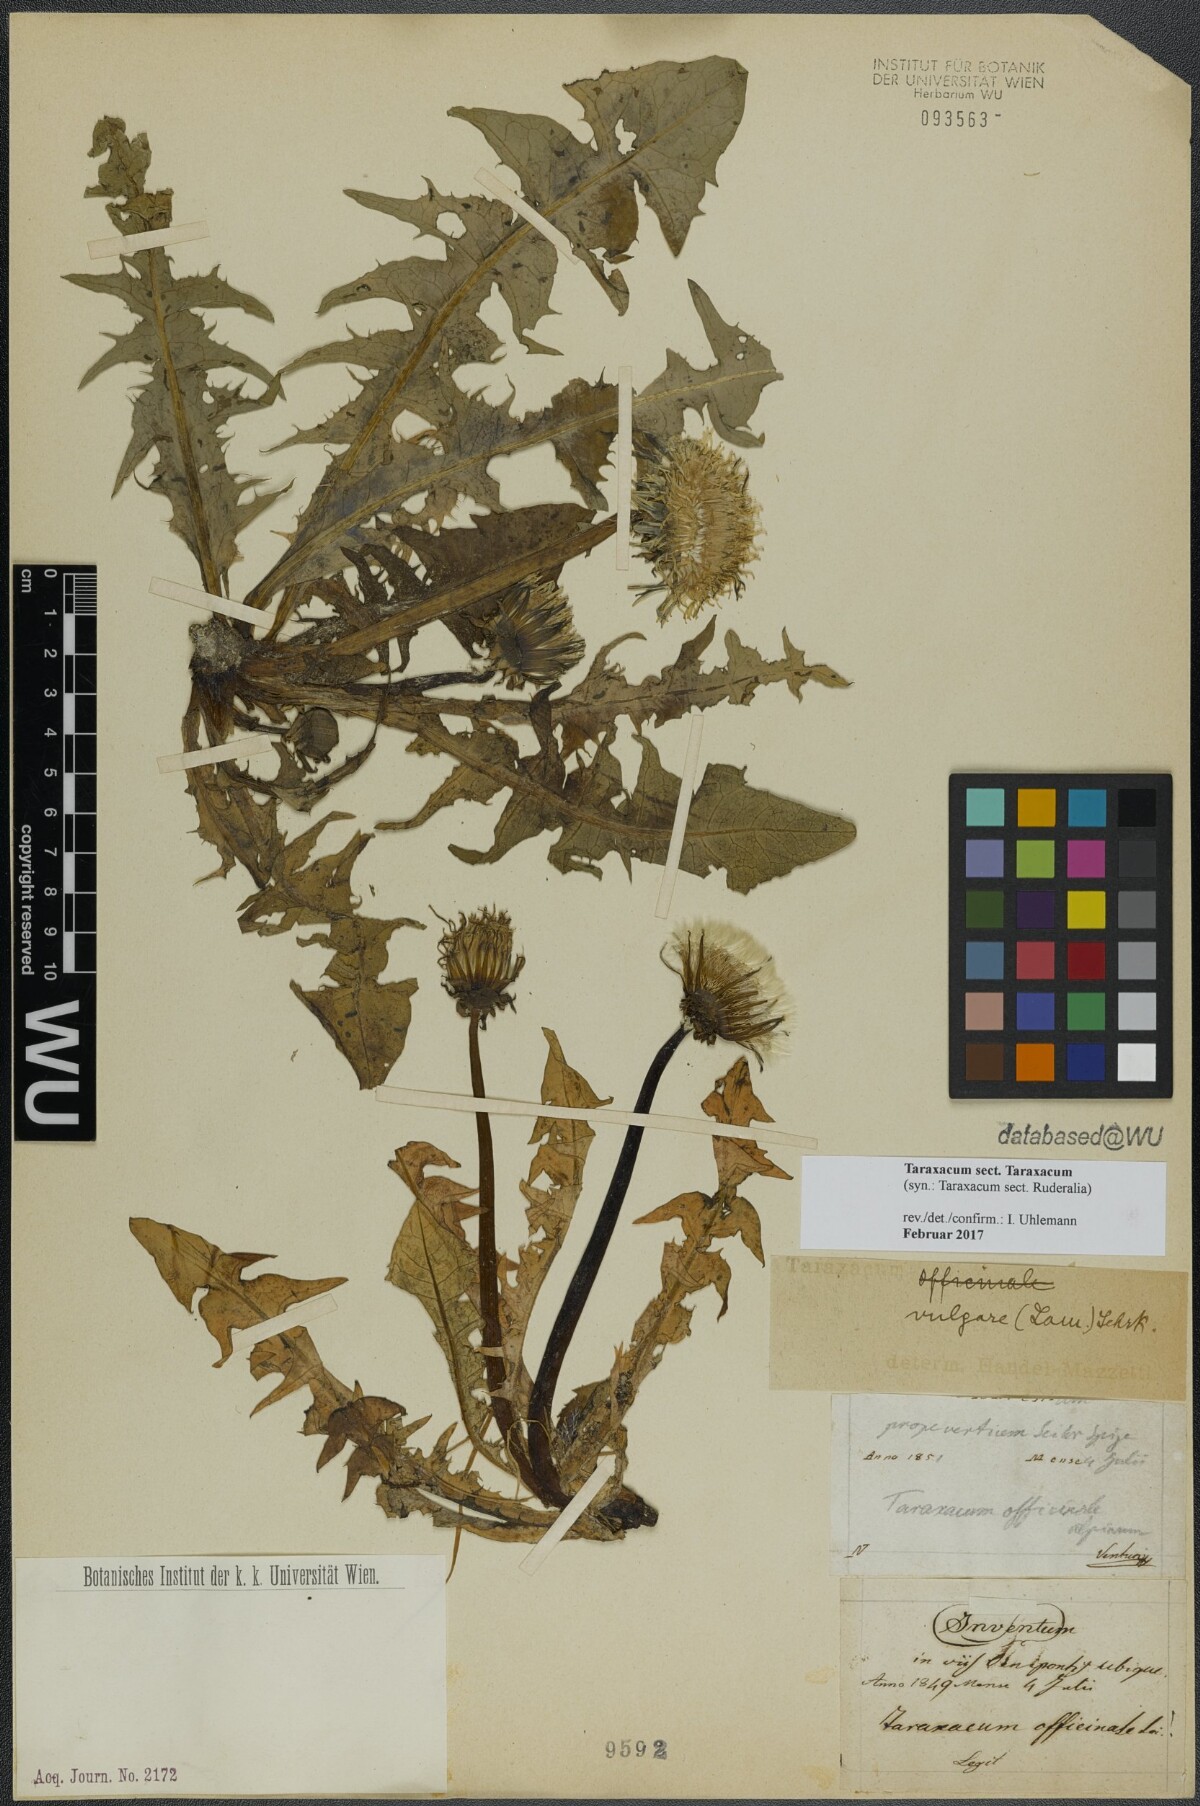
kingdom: Plantae
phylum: Tracheophyta
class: Magnoliopsida
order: Asterales
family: Asteraceae
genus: Taraxacum
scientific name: Taraxacum
